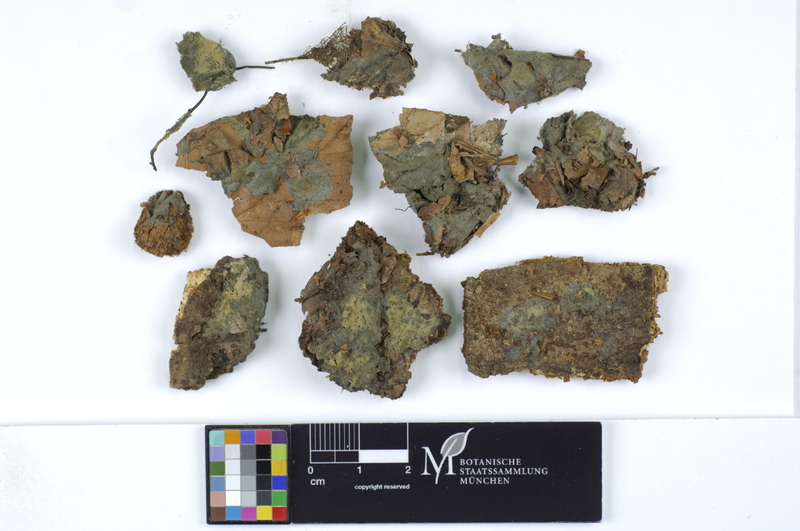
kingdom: Plantae
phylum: Tracheophyta
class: Magnoliopsida
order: Fagales
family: Fagaceae
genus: Fagus
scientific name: Fagus sylvatica
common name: Beech
